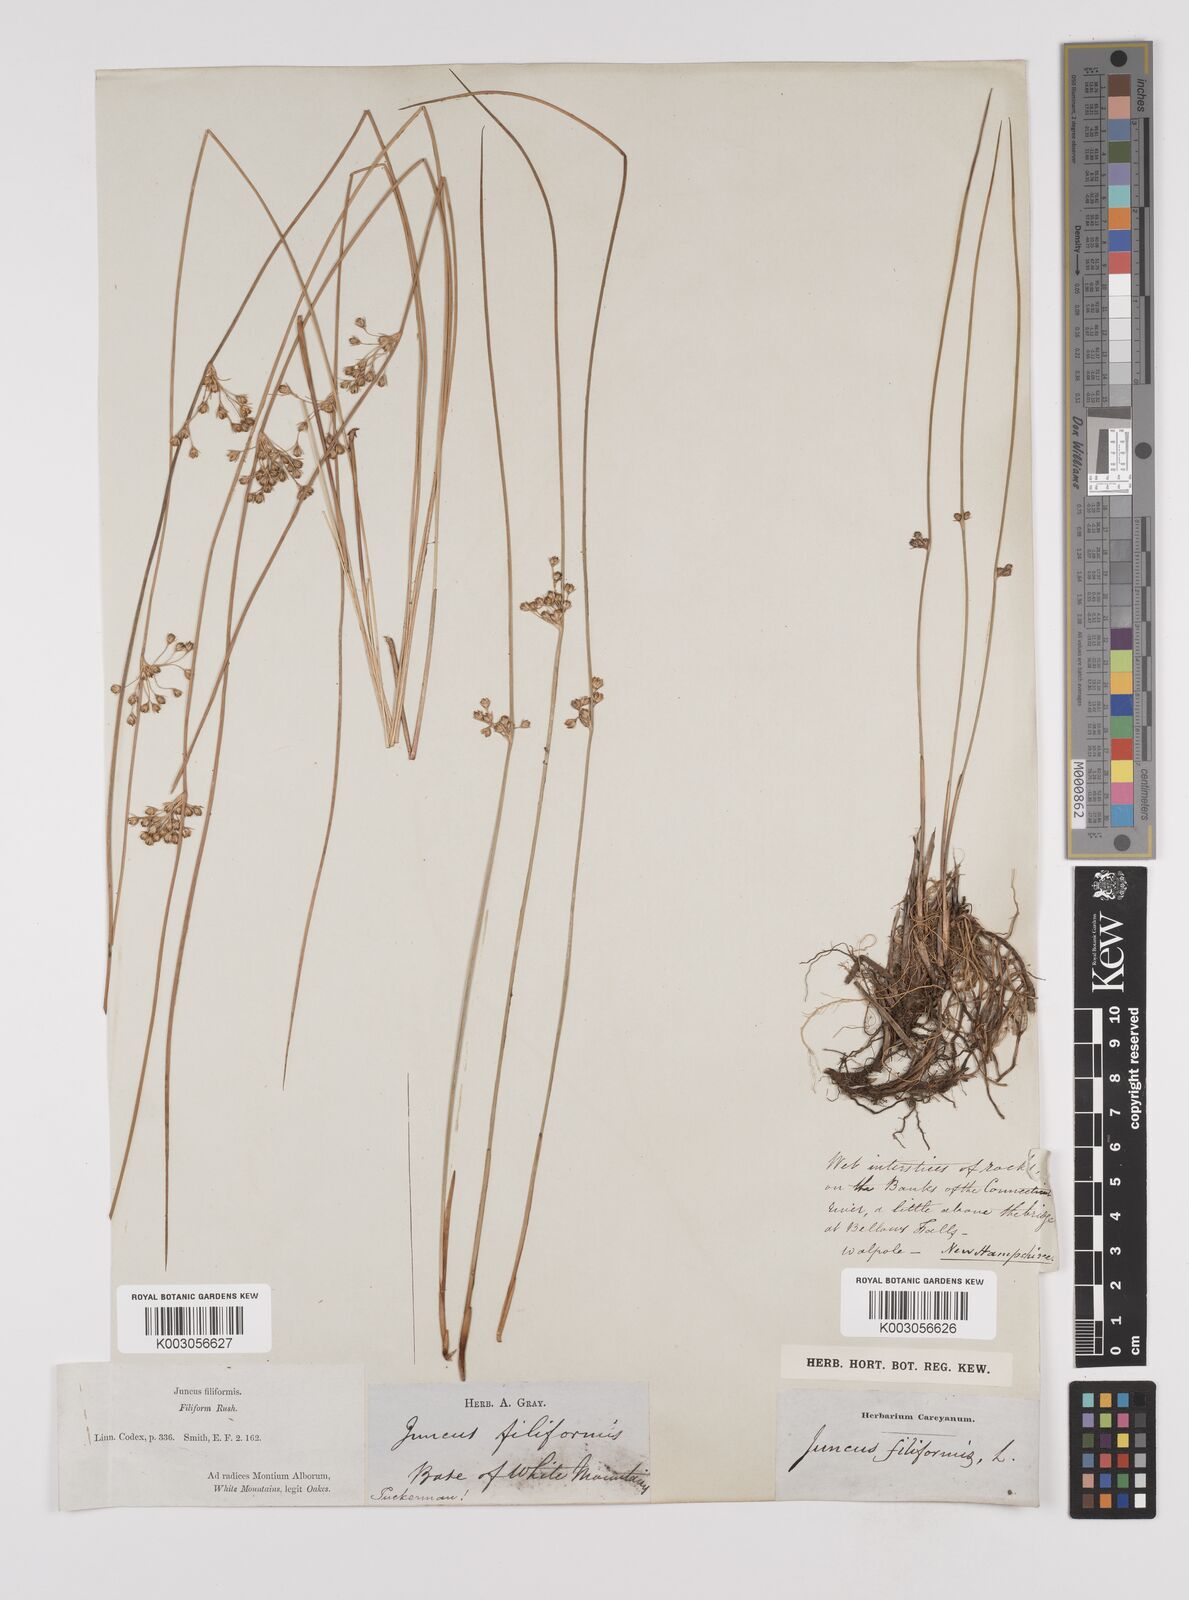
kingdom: Plantae
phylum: Tracheophyta
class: Liliopsida
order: Poales
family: Juncaceae
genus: Juncus
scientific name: Juncus filiformis
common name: Thread rush
